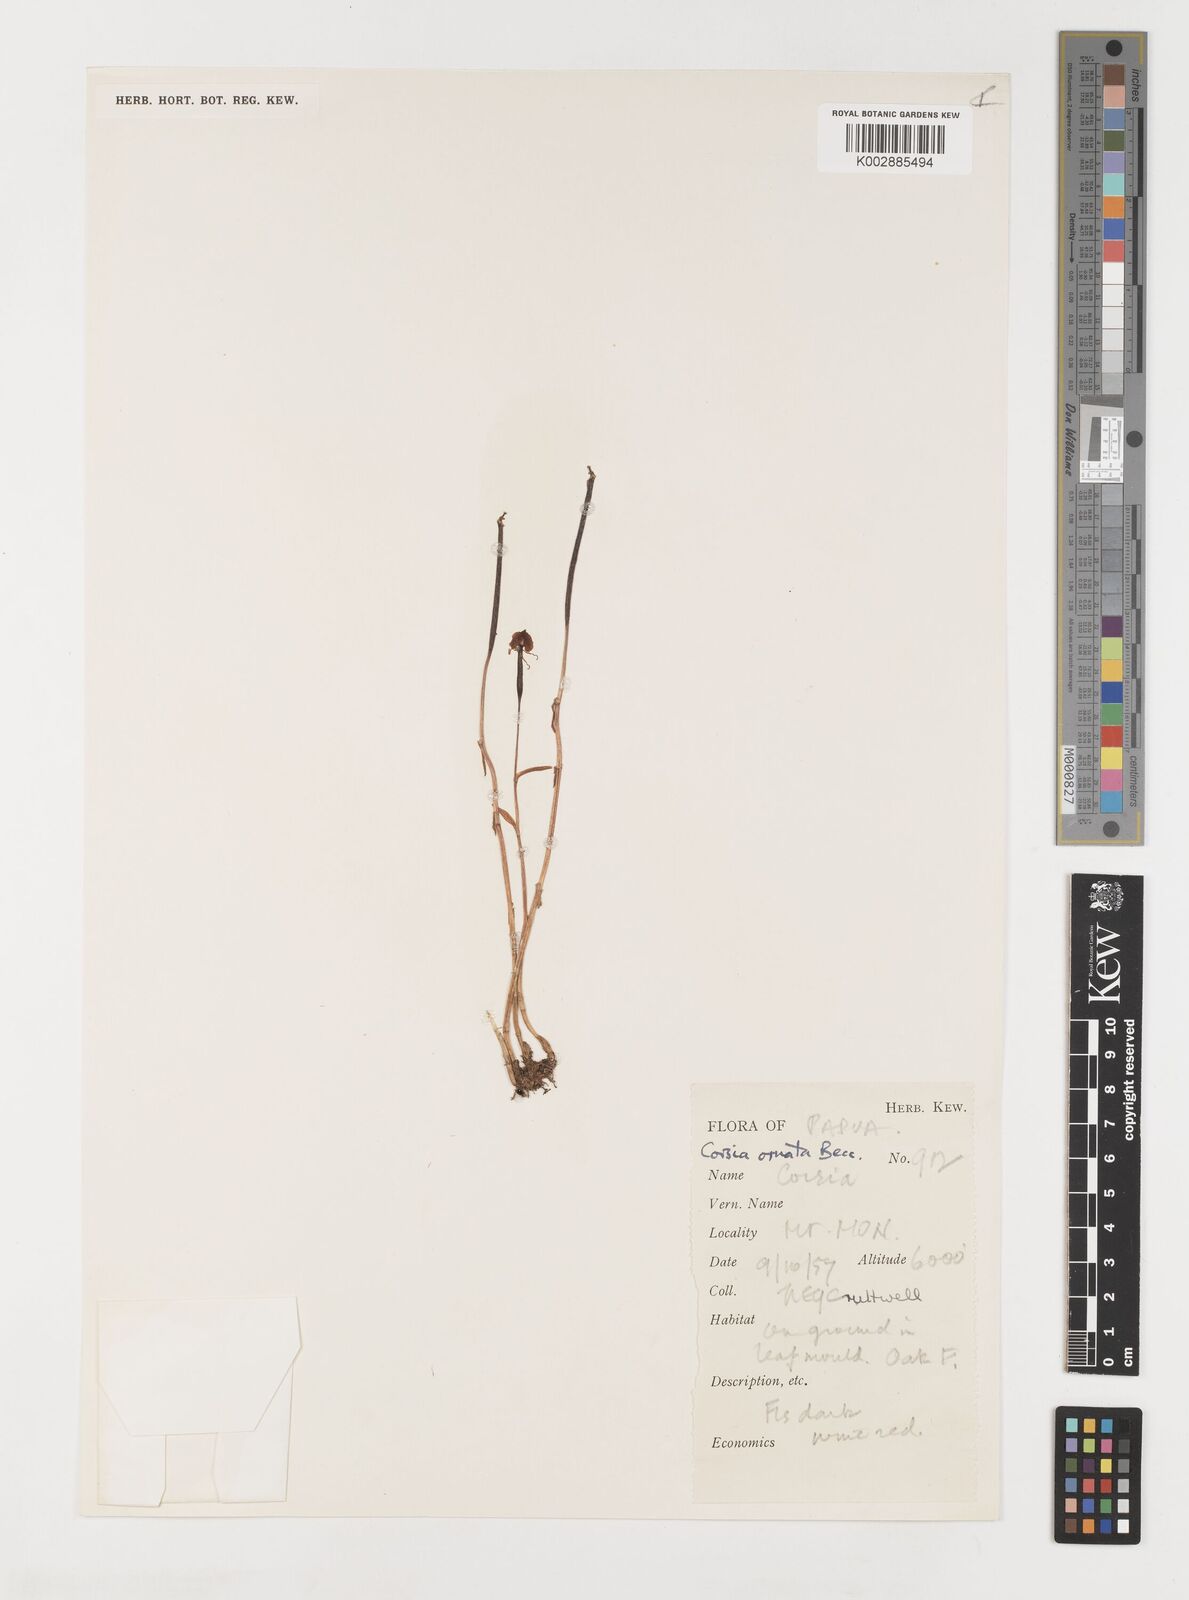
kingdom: Plantae
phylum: Tracheophyta
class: Liliopsida
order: Liliales
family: Corsiaceae
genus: Corsia
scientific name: Corsia ornata
